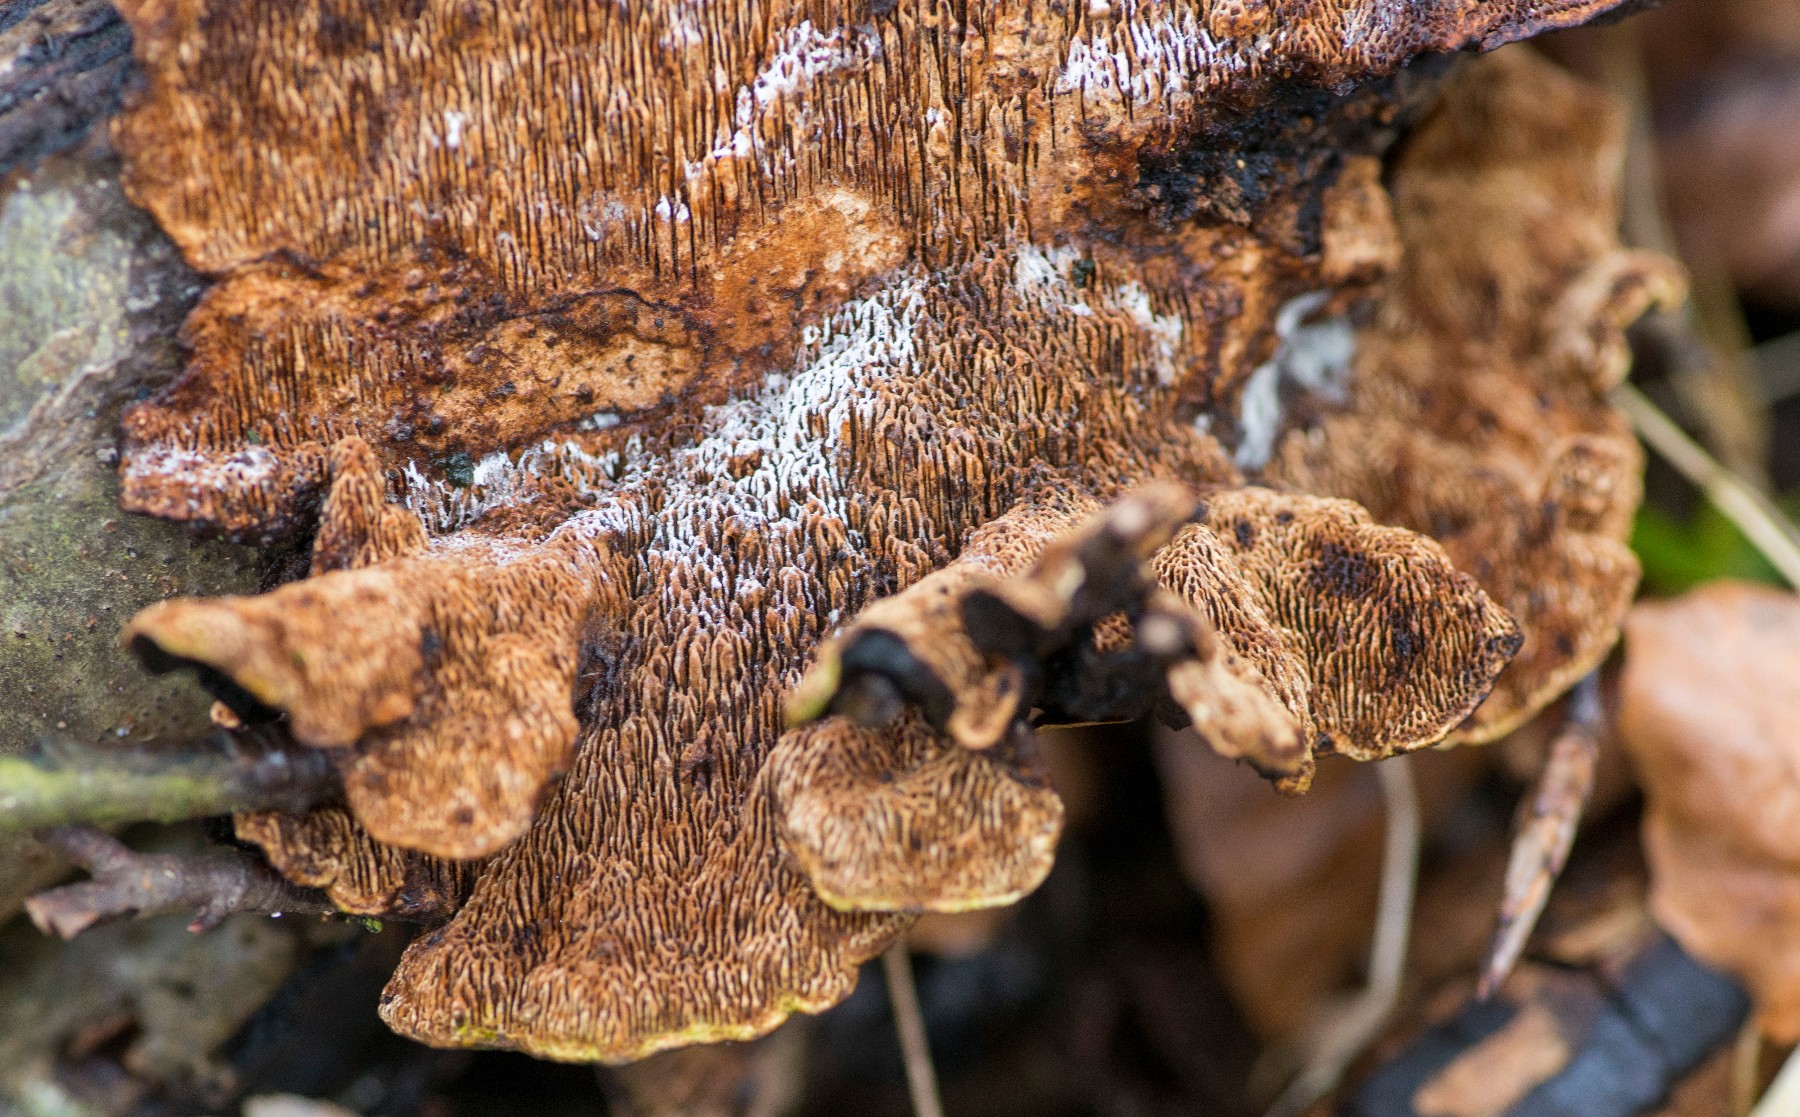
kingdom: Fungi
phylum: Basidiomycota
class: Agaricomycetes
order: Polyporales
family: Polyporaceae
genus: Podofomes
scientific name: Podofomes mollis
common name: blød begporesvamp
